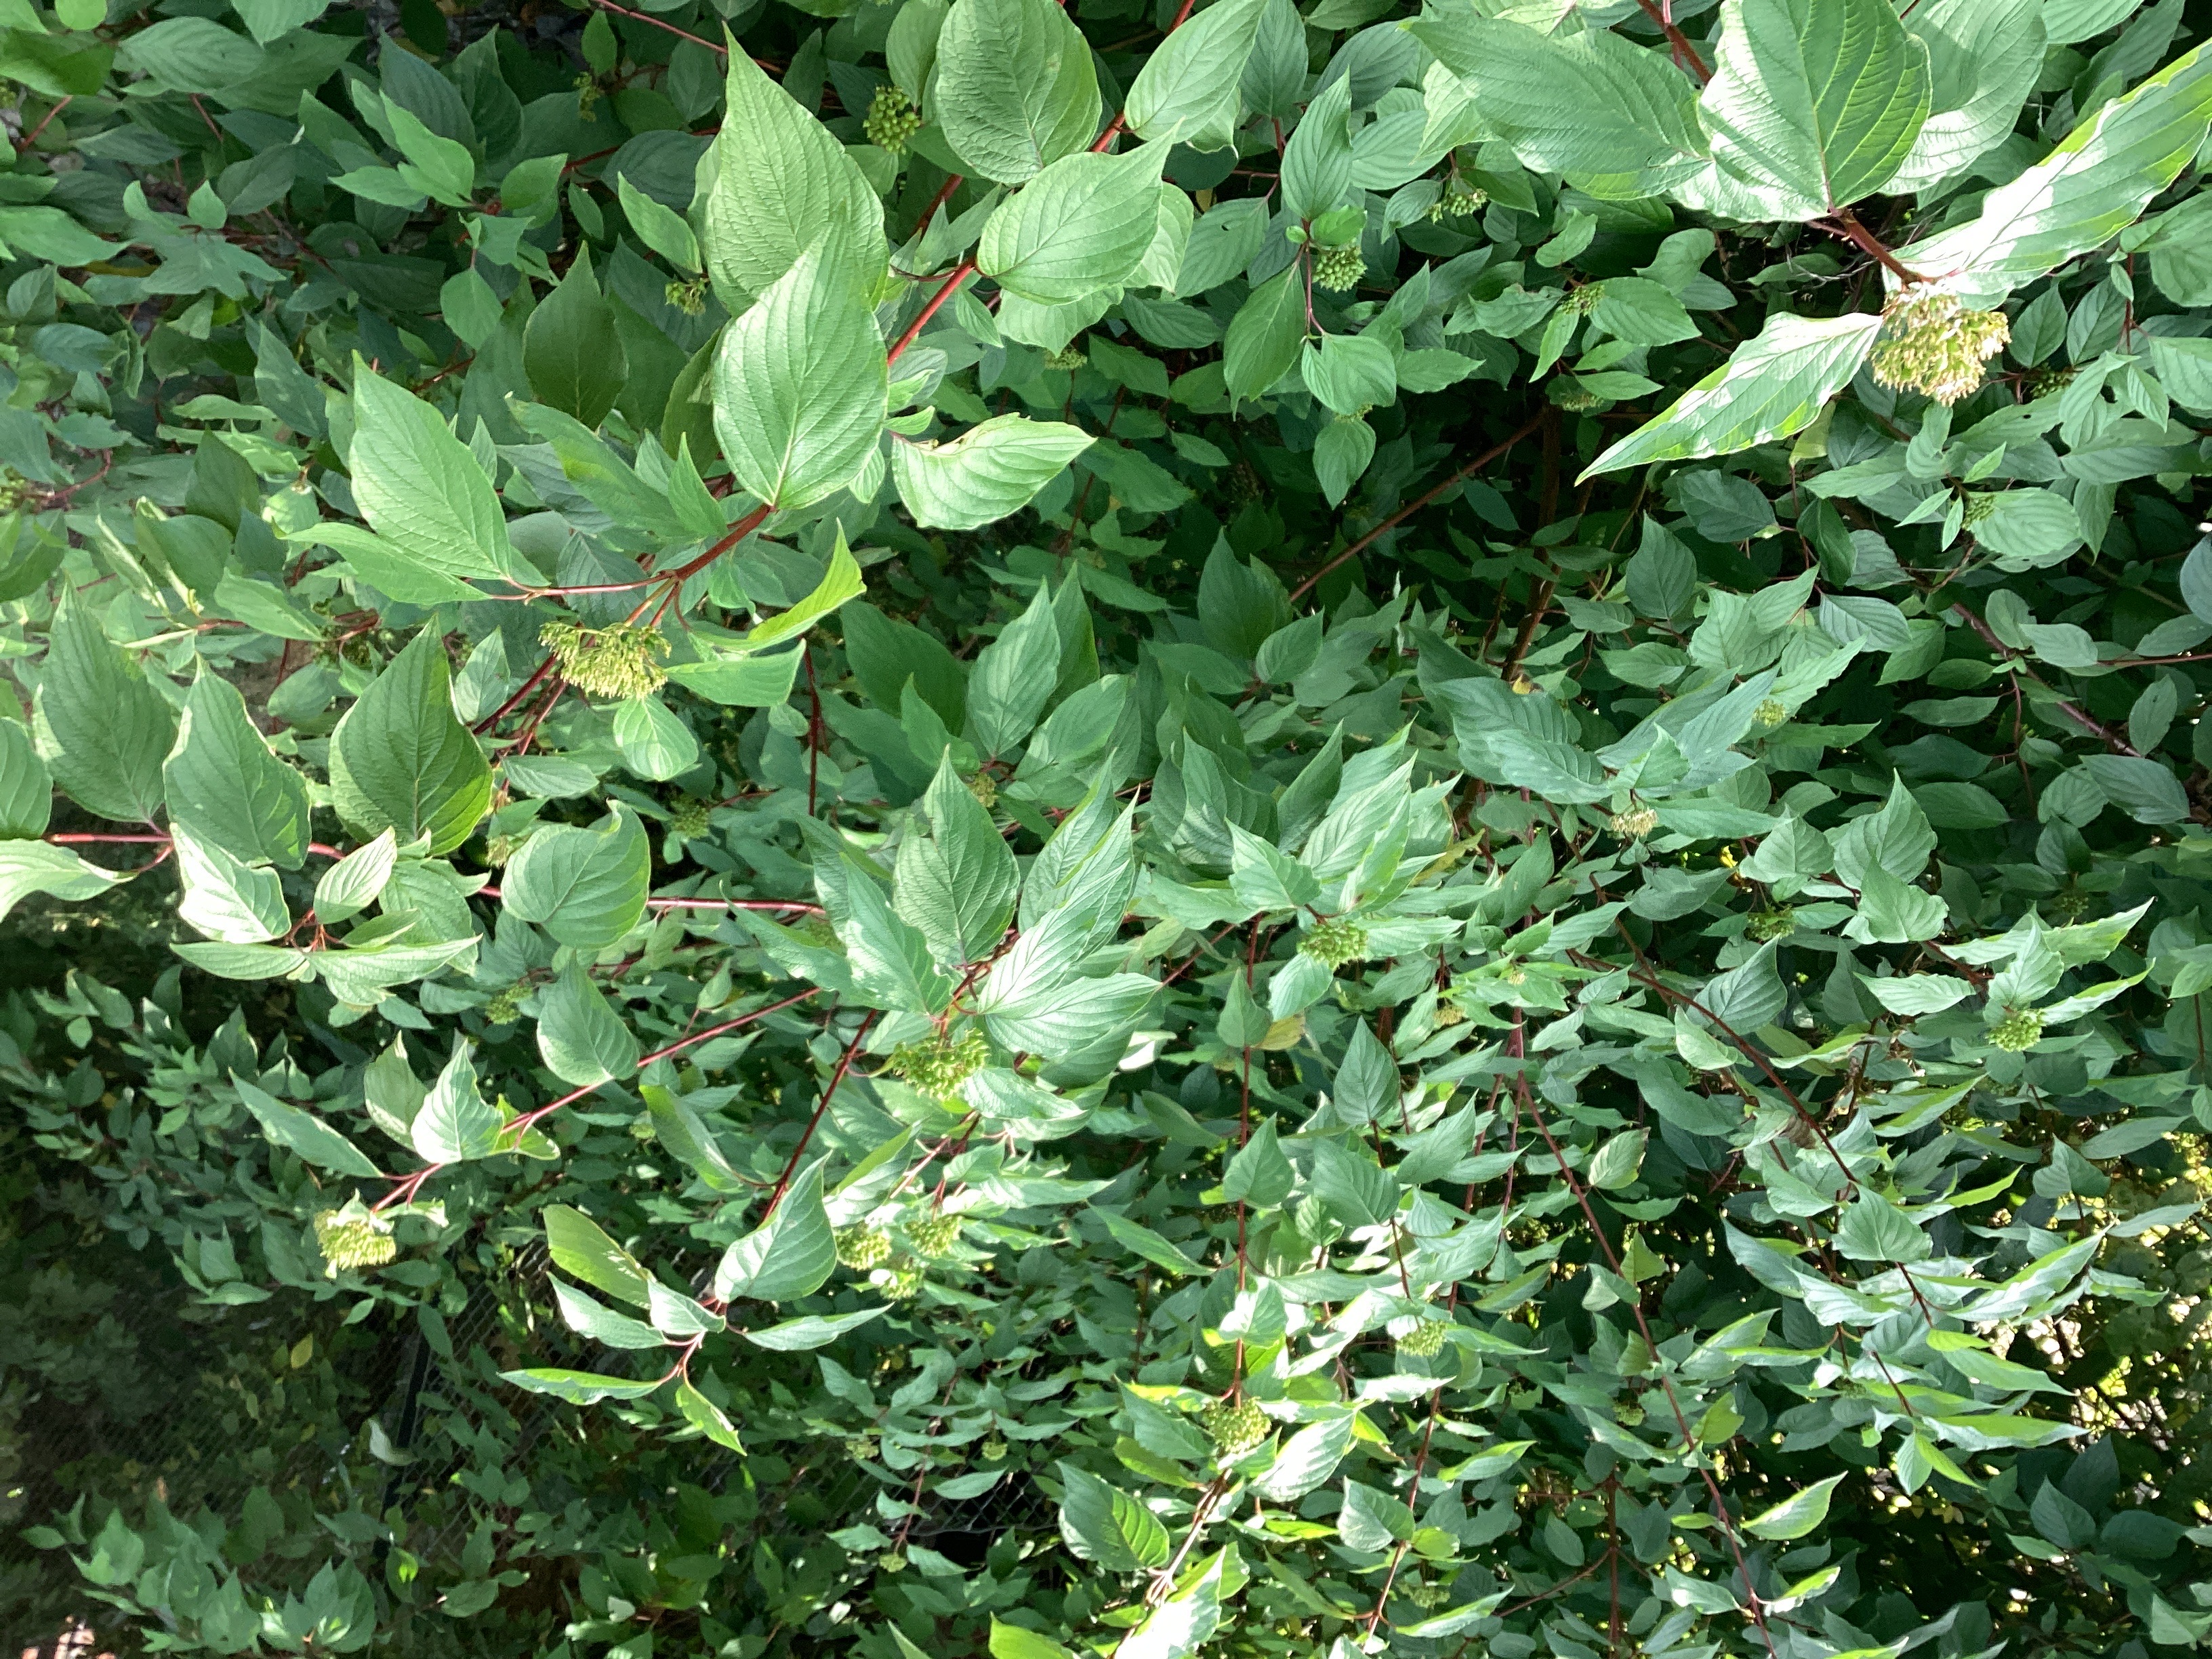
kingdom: Plantae
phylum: Tracheophyta
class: Magnoliopsida
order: Cornales
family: Cornaceae
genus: Cornus
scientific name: Cornus sericea
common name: alaskakornell
